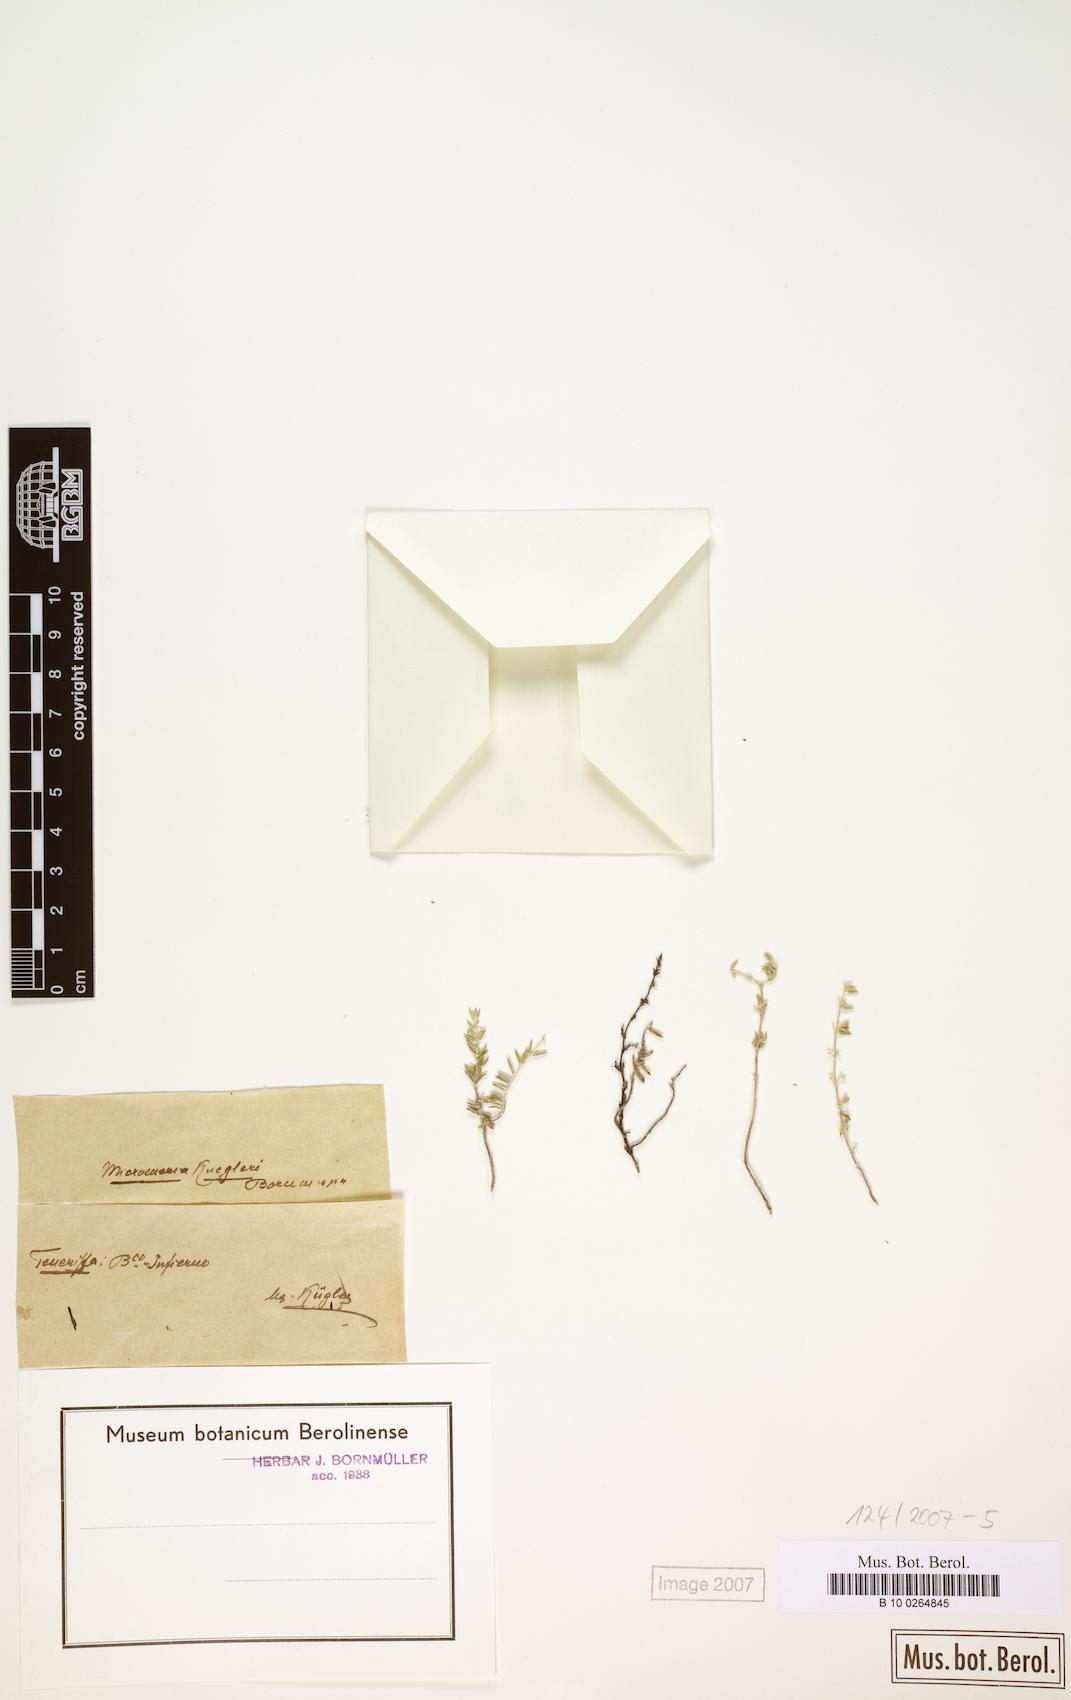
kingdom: Plantae
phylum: Tracheophyta
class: Magnoliopsida
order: Lamiales
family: Lamiaceae
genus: Micromeria
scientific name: Micromeria ericifolia
